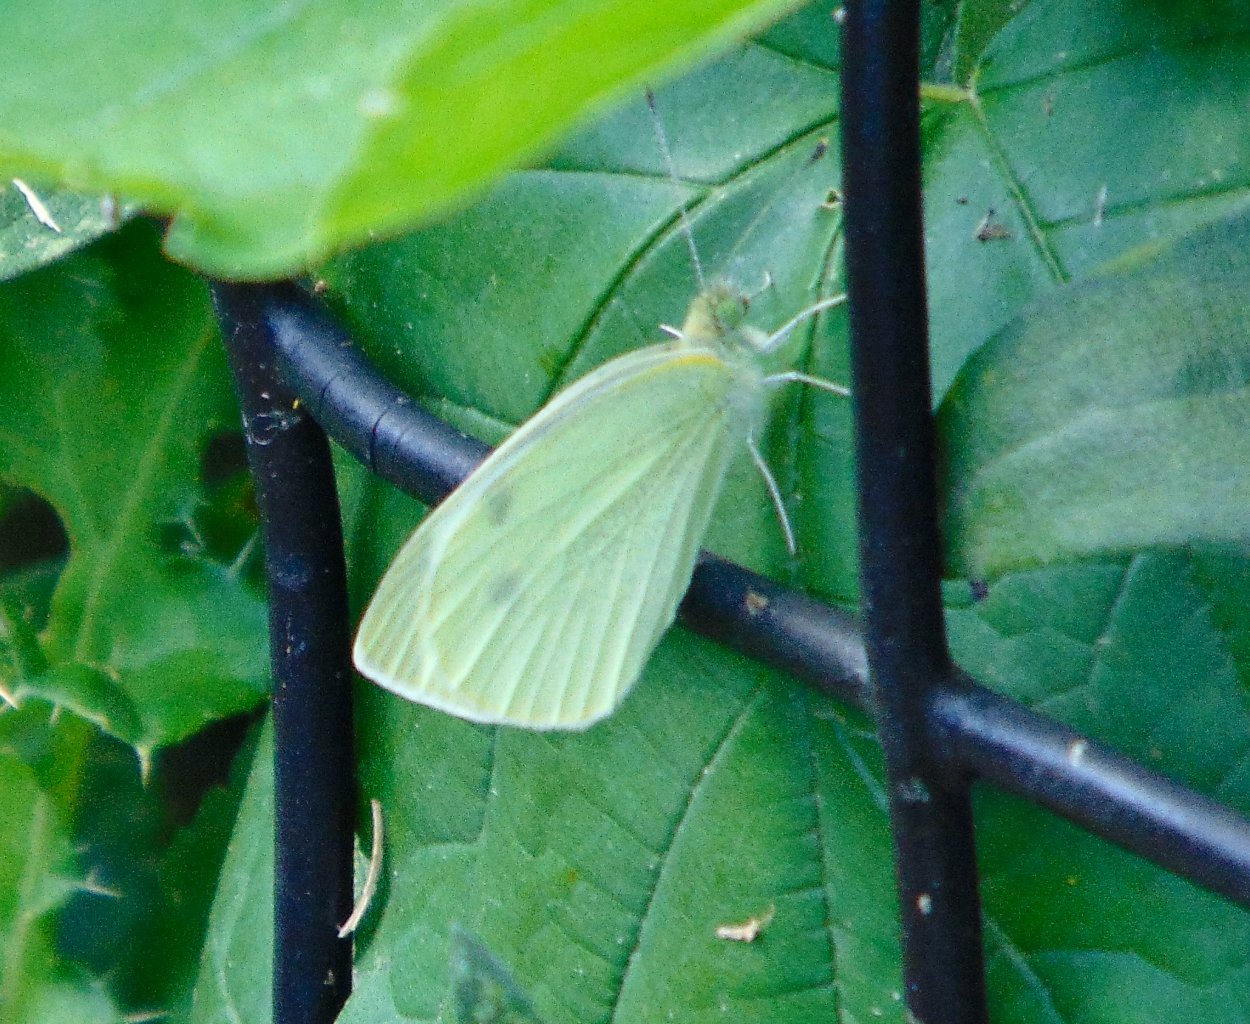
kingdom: Animalia
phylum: Arthropoda
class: Insecta
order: Lepidoptera
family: Pieridae
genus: Pieris
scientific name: Pieris rapae
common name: Cabbage White
